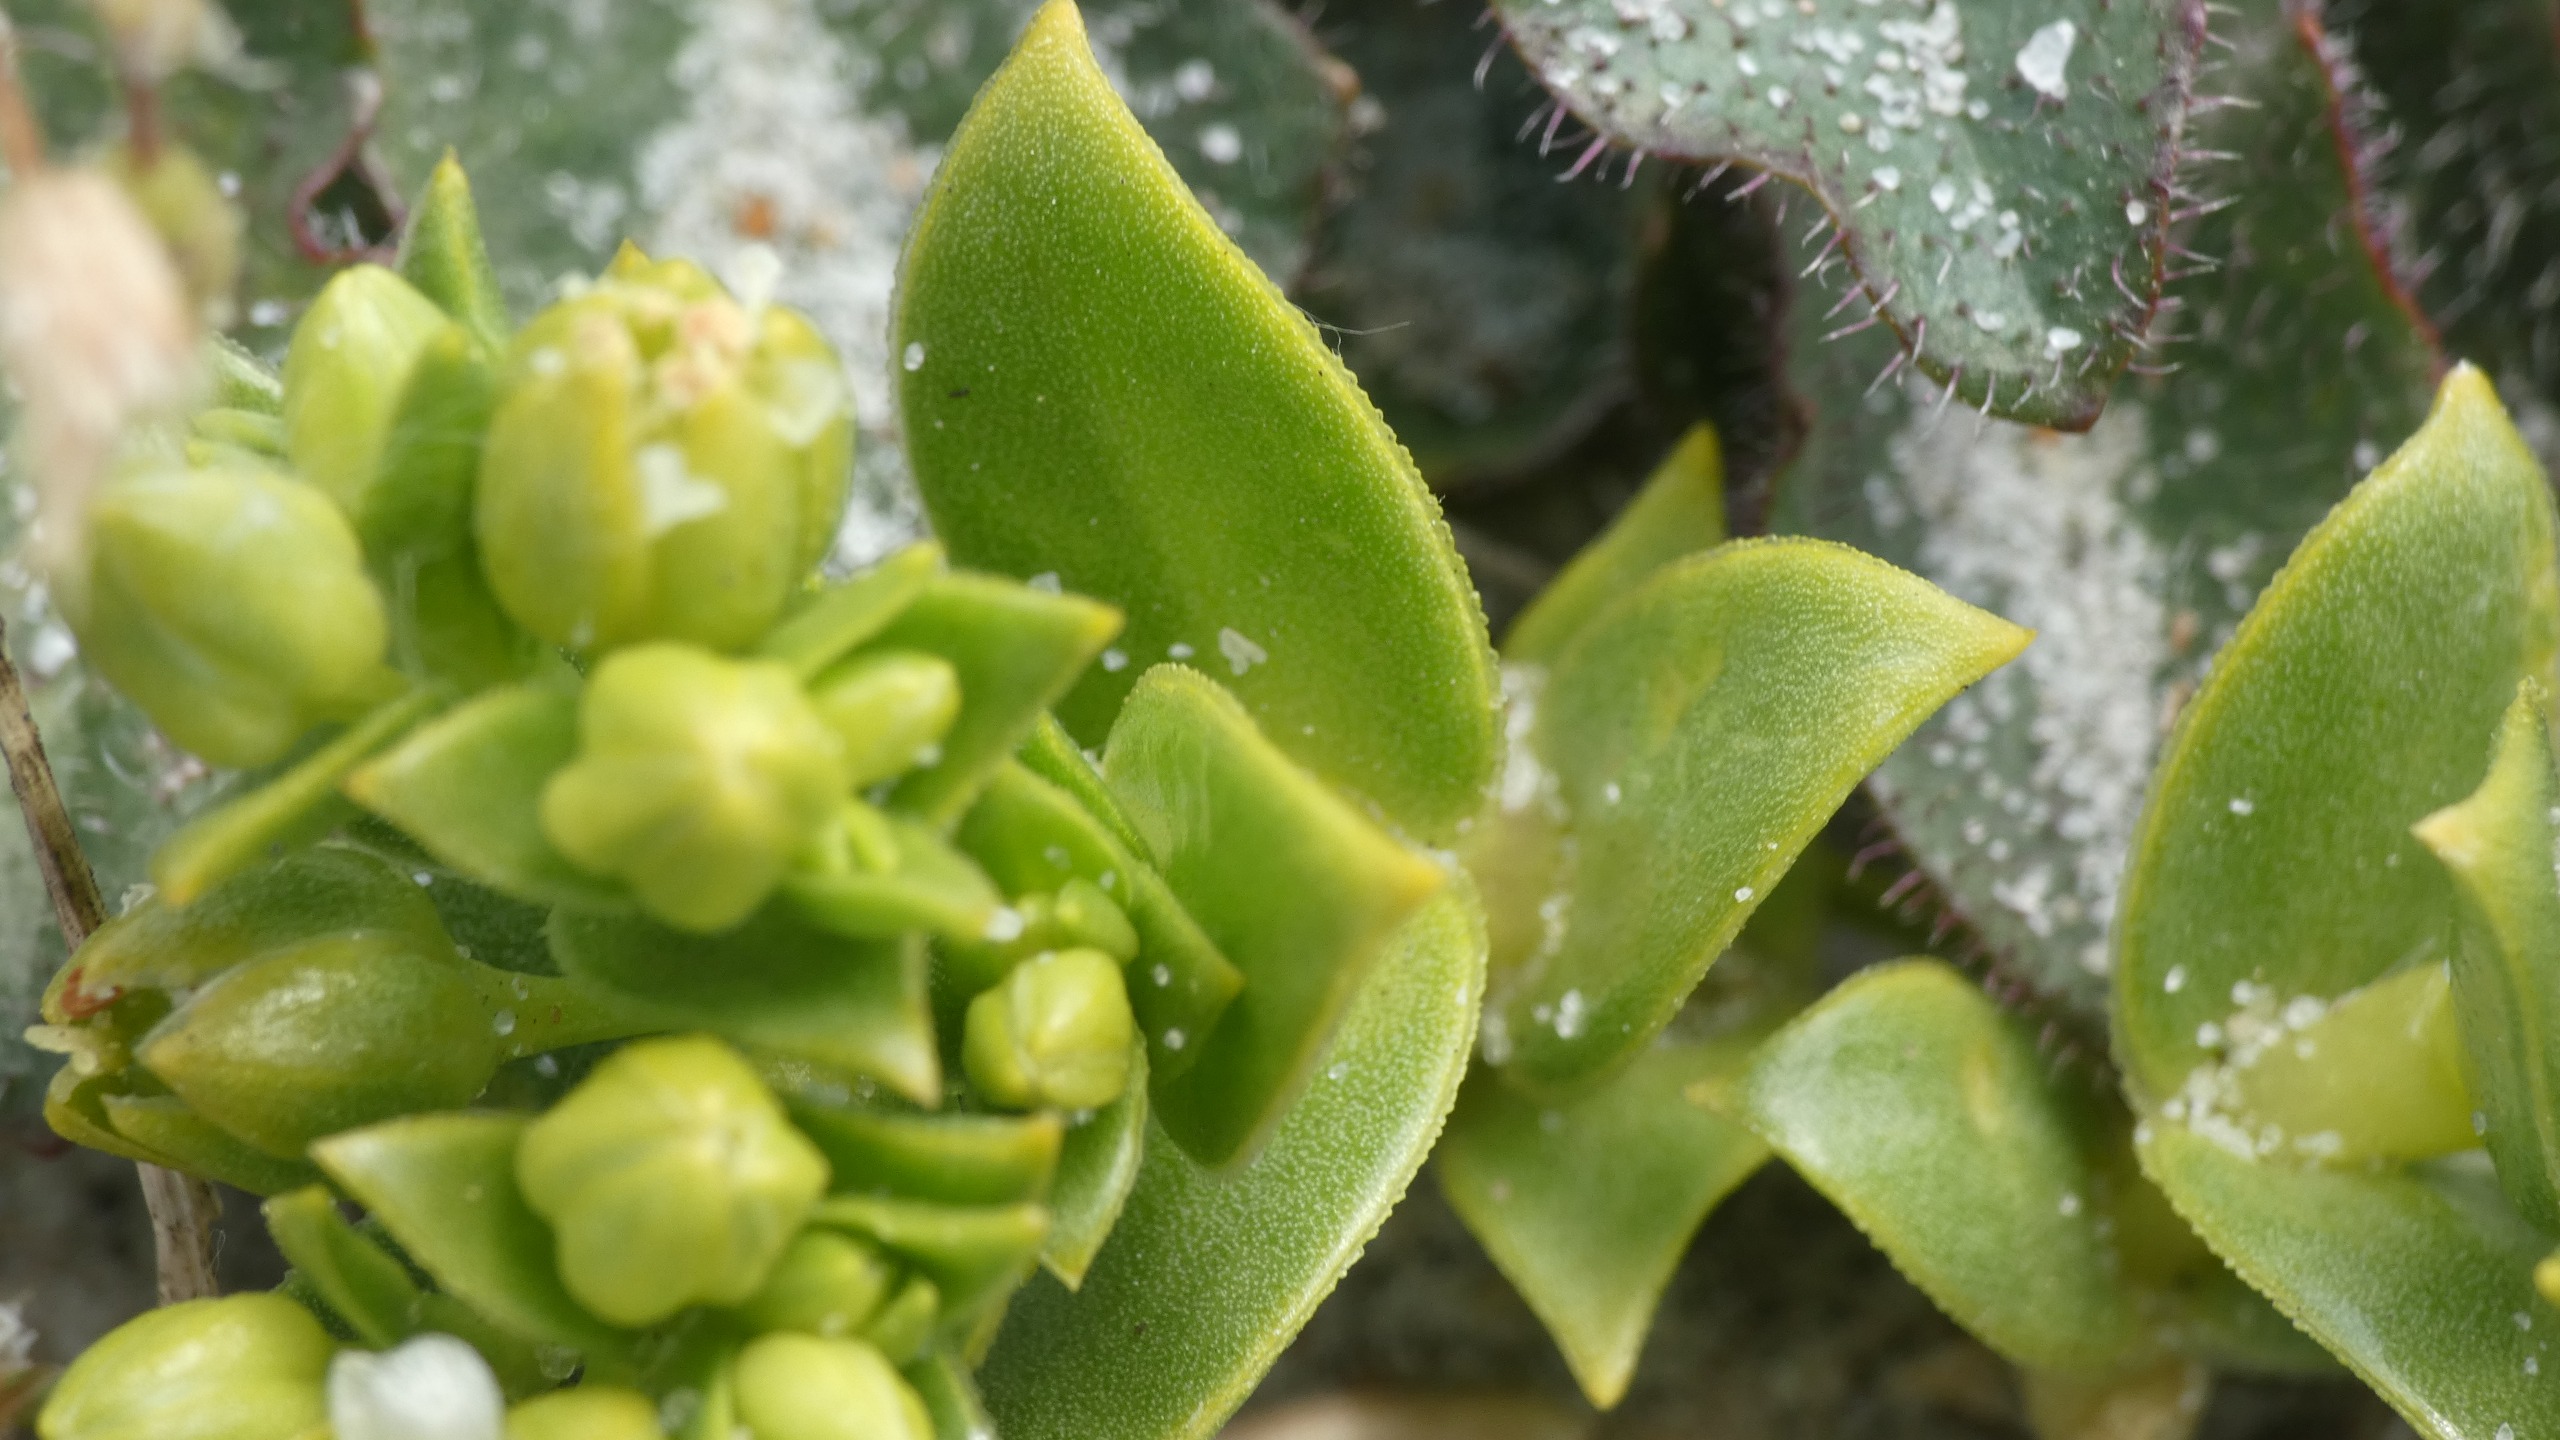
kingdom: Plantae
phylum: Tracheophyta
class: Magnoliopsida
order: Caryophyllales
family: Caryophyllaceae
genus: Honckenya
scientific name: Honckenya peploides
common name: Strandarve
